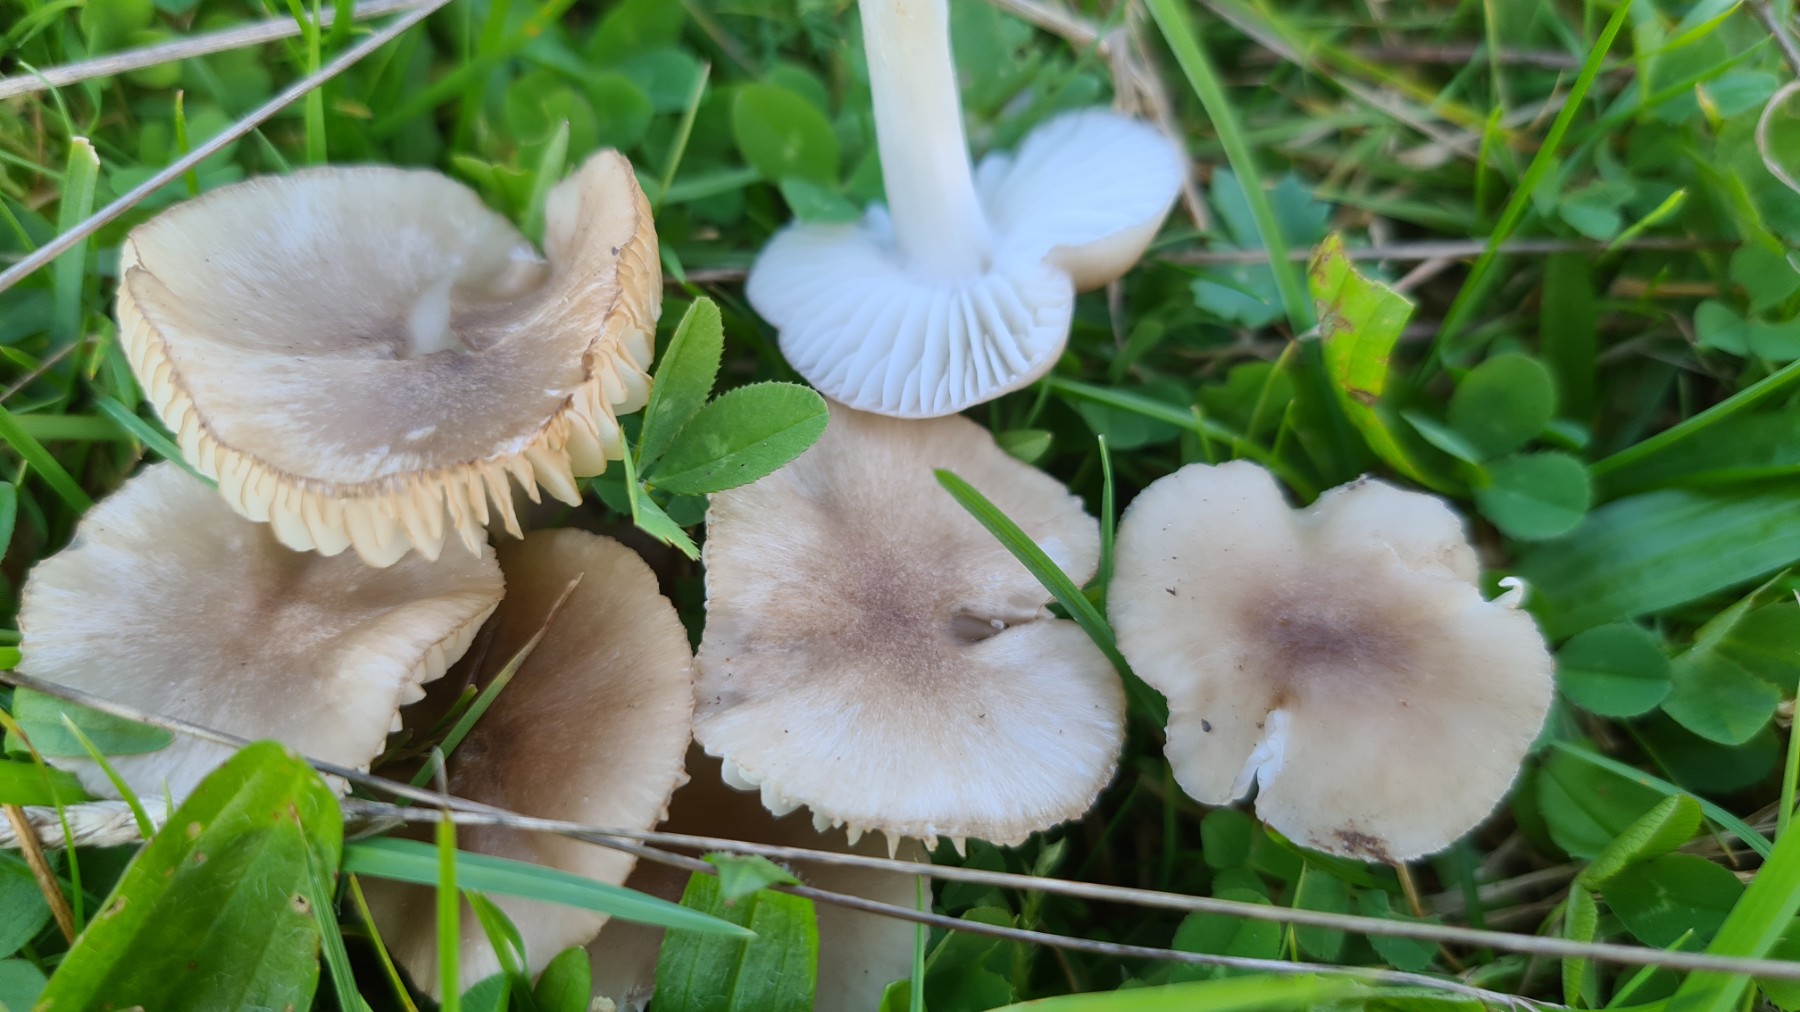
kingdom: Fungi
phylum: Basidiomycota
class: Agaricomycetes
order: Agaricales
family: Hygrophoraceae
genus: Cuphophyllus
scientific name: Cuphophyllus fornicatus
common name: gråbrun vokshat
